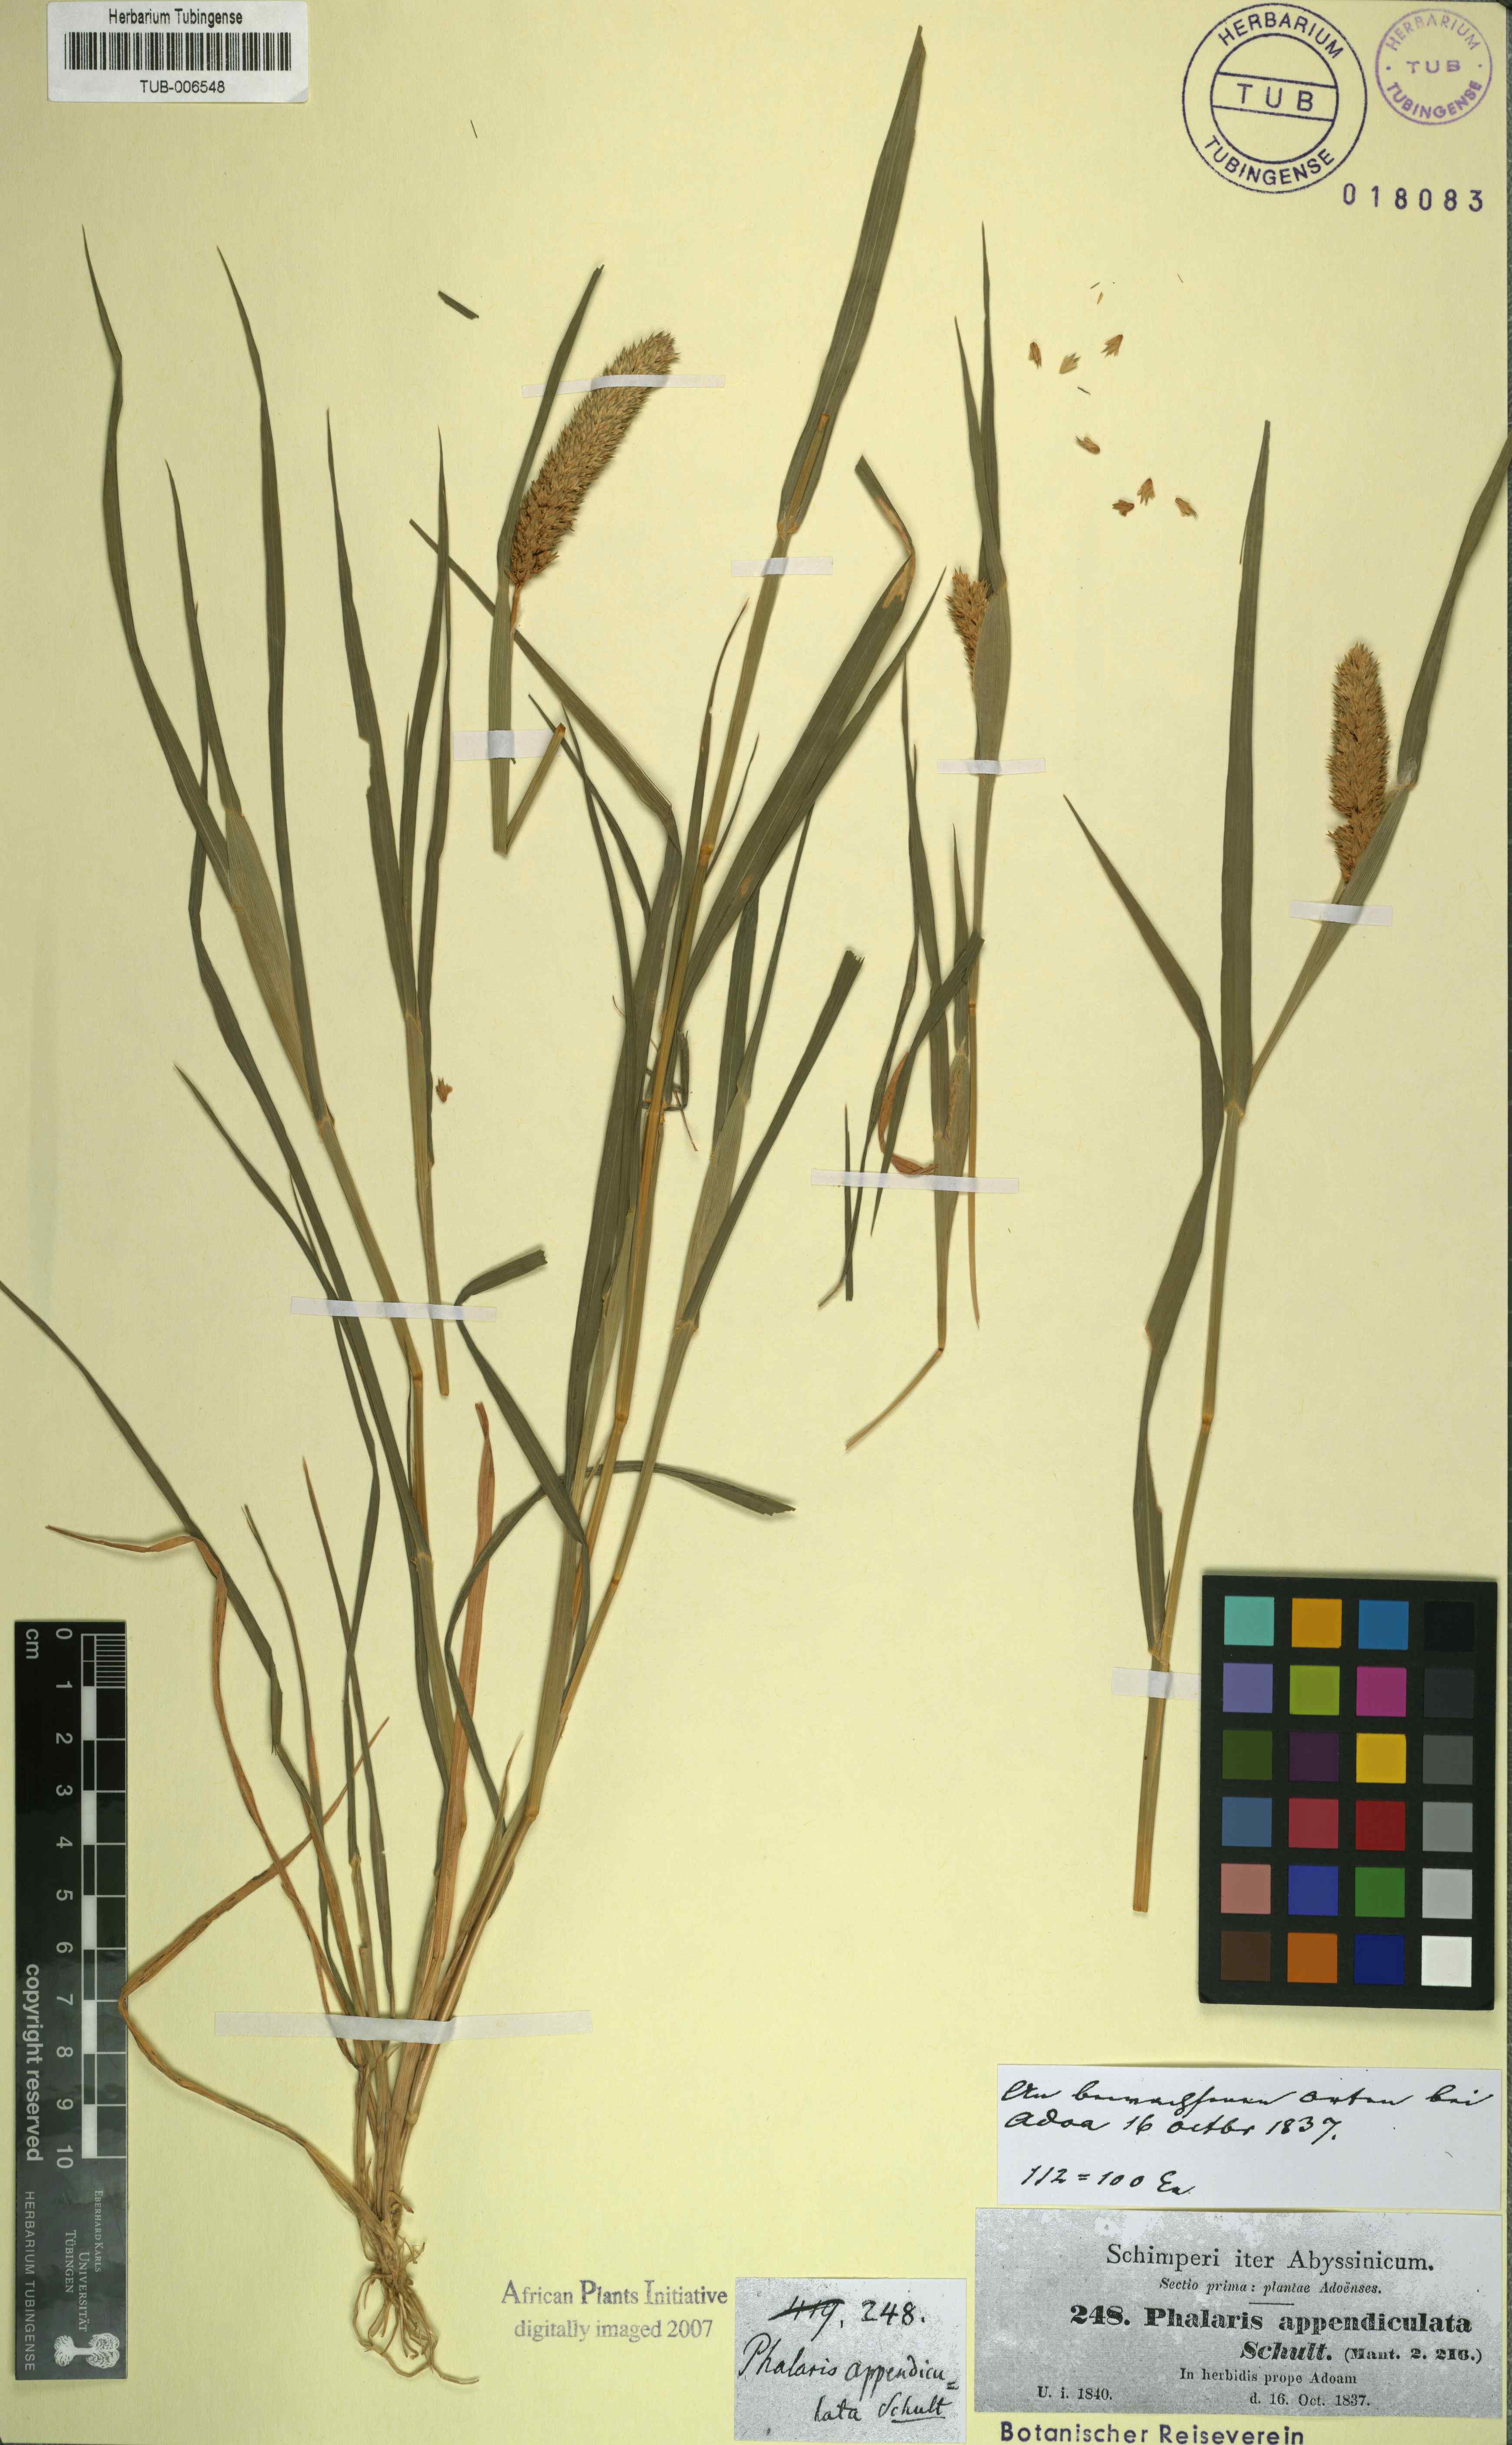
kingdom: Plantae
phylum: Tracheophyta
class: Liliopsida
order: Poales
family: Poaceae
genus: Phalaris
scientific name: Phalaris paradoxa
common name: Awned canary-grass
